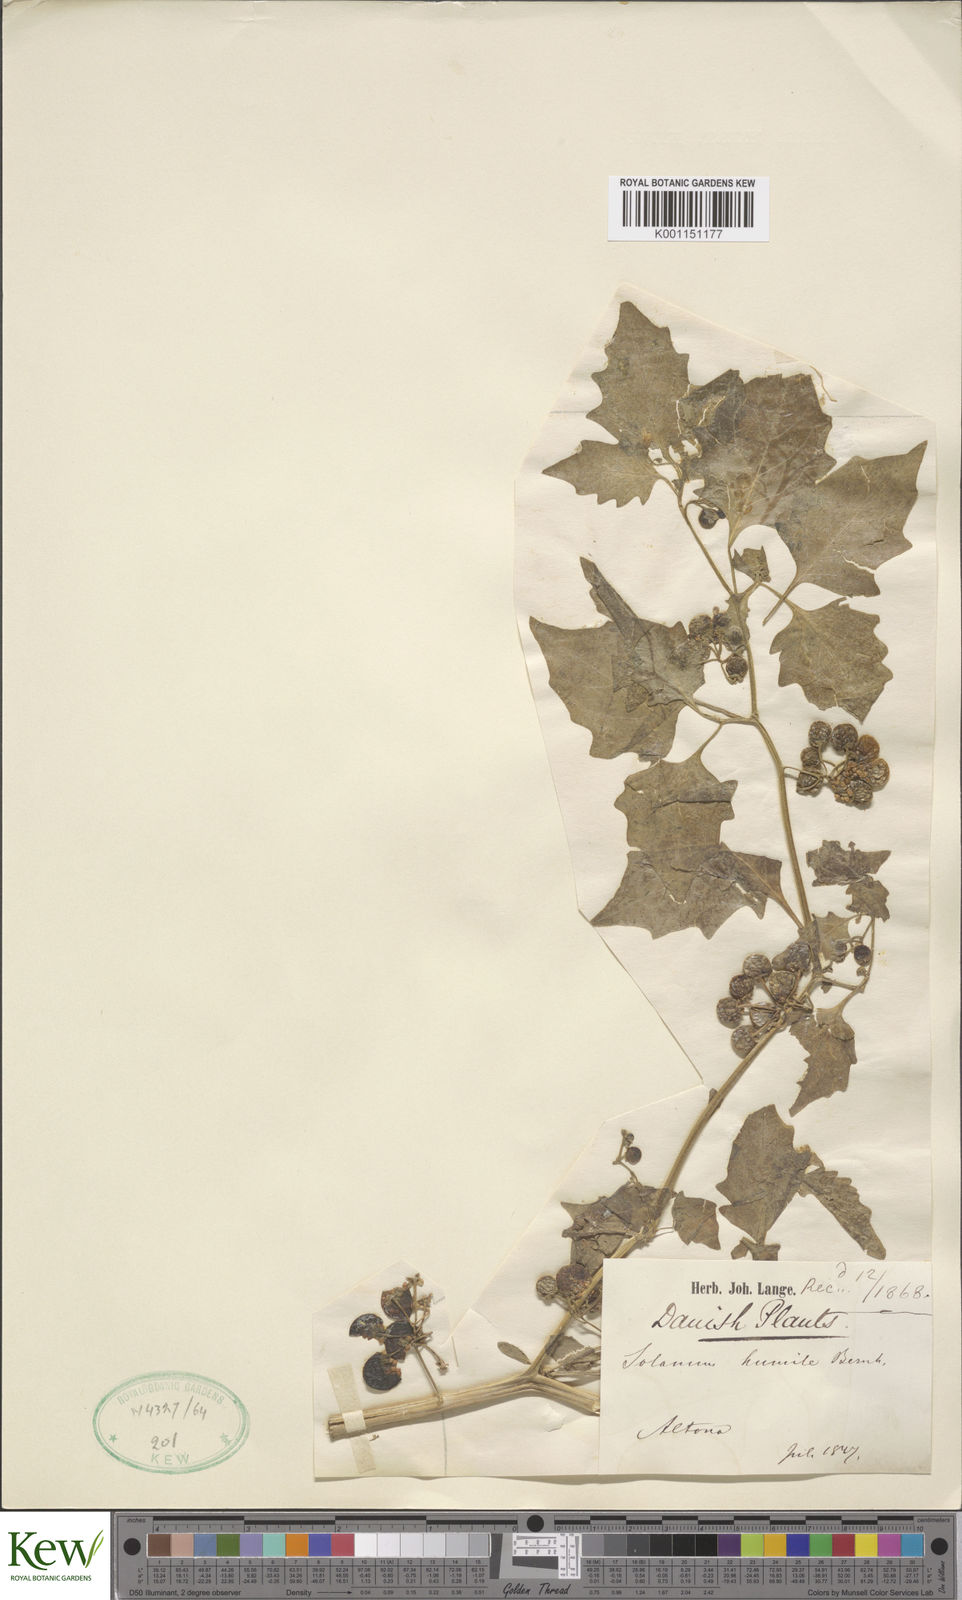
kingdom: Plantae
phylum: Tracheophyta
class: Magnoliopsida
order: Solanales
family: Solanaceae
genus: Solanum
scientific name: Solanum villosum
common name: Red nightshade
